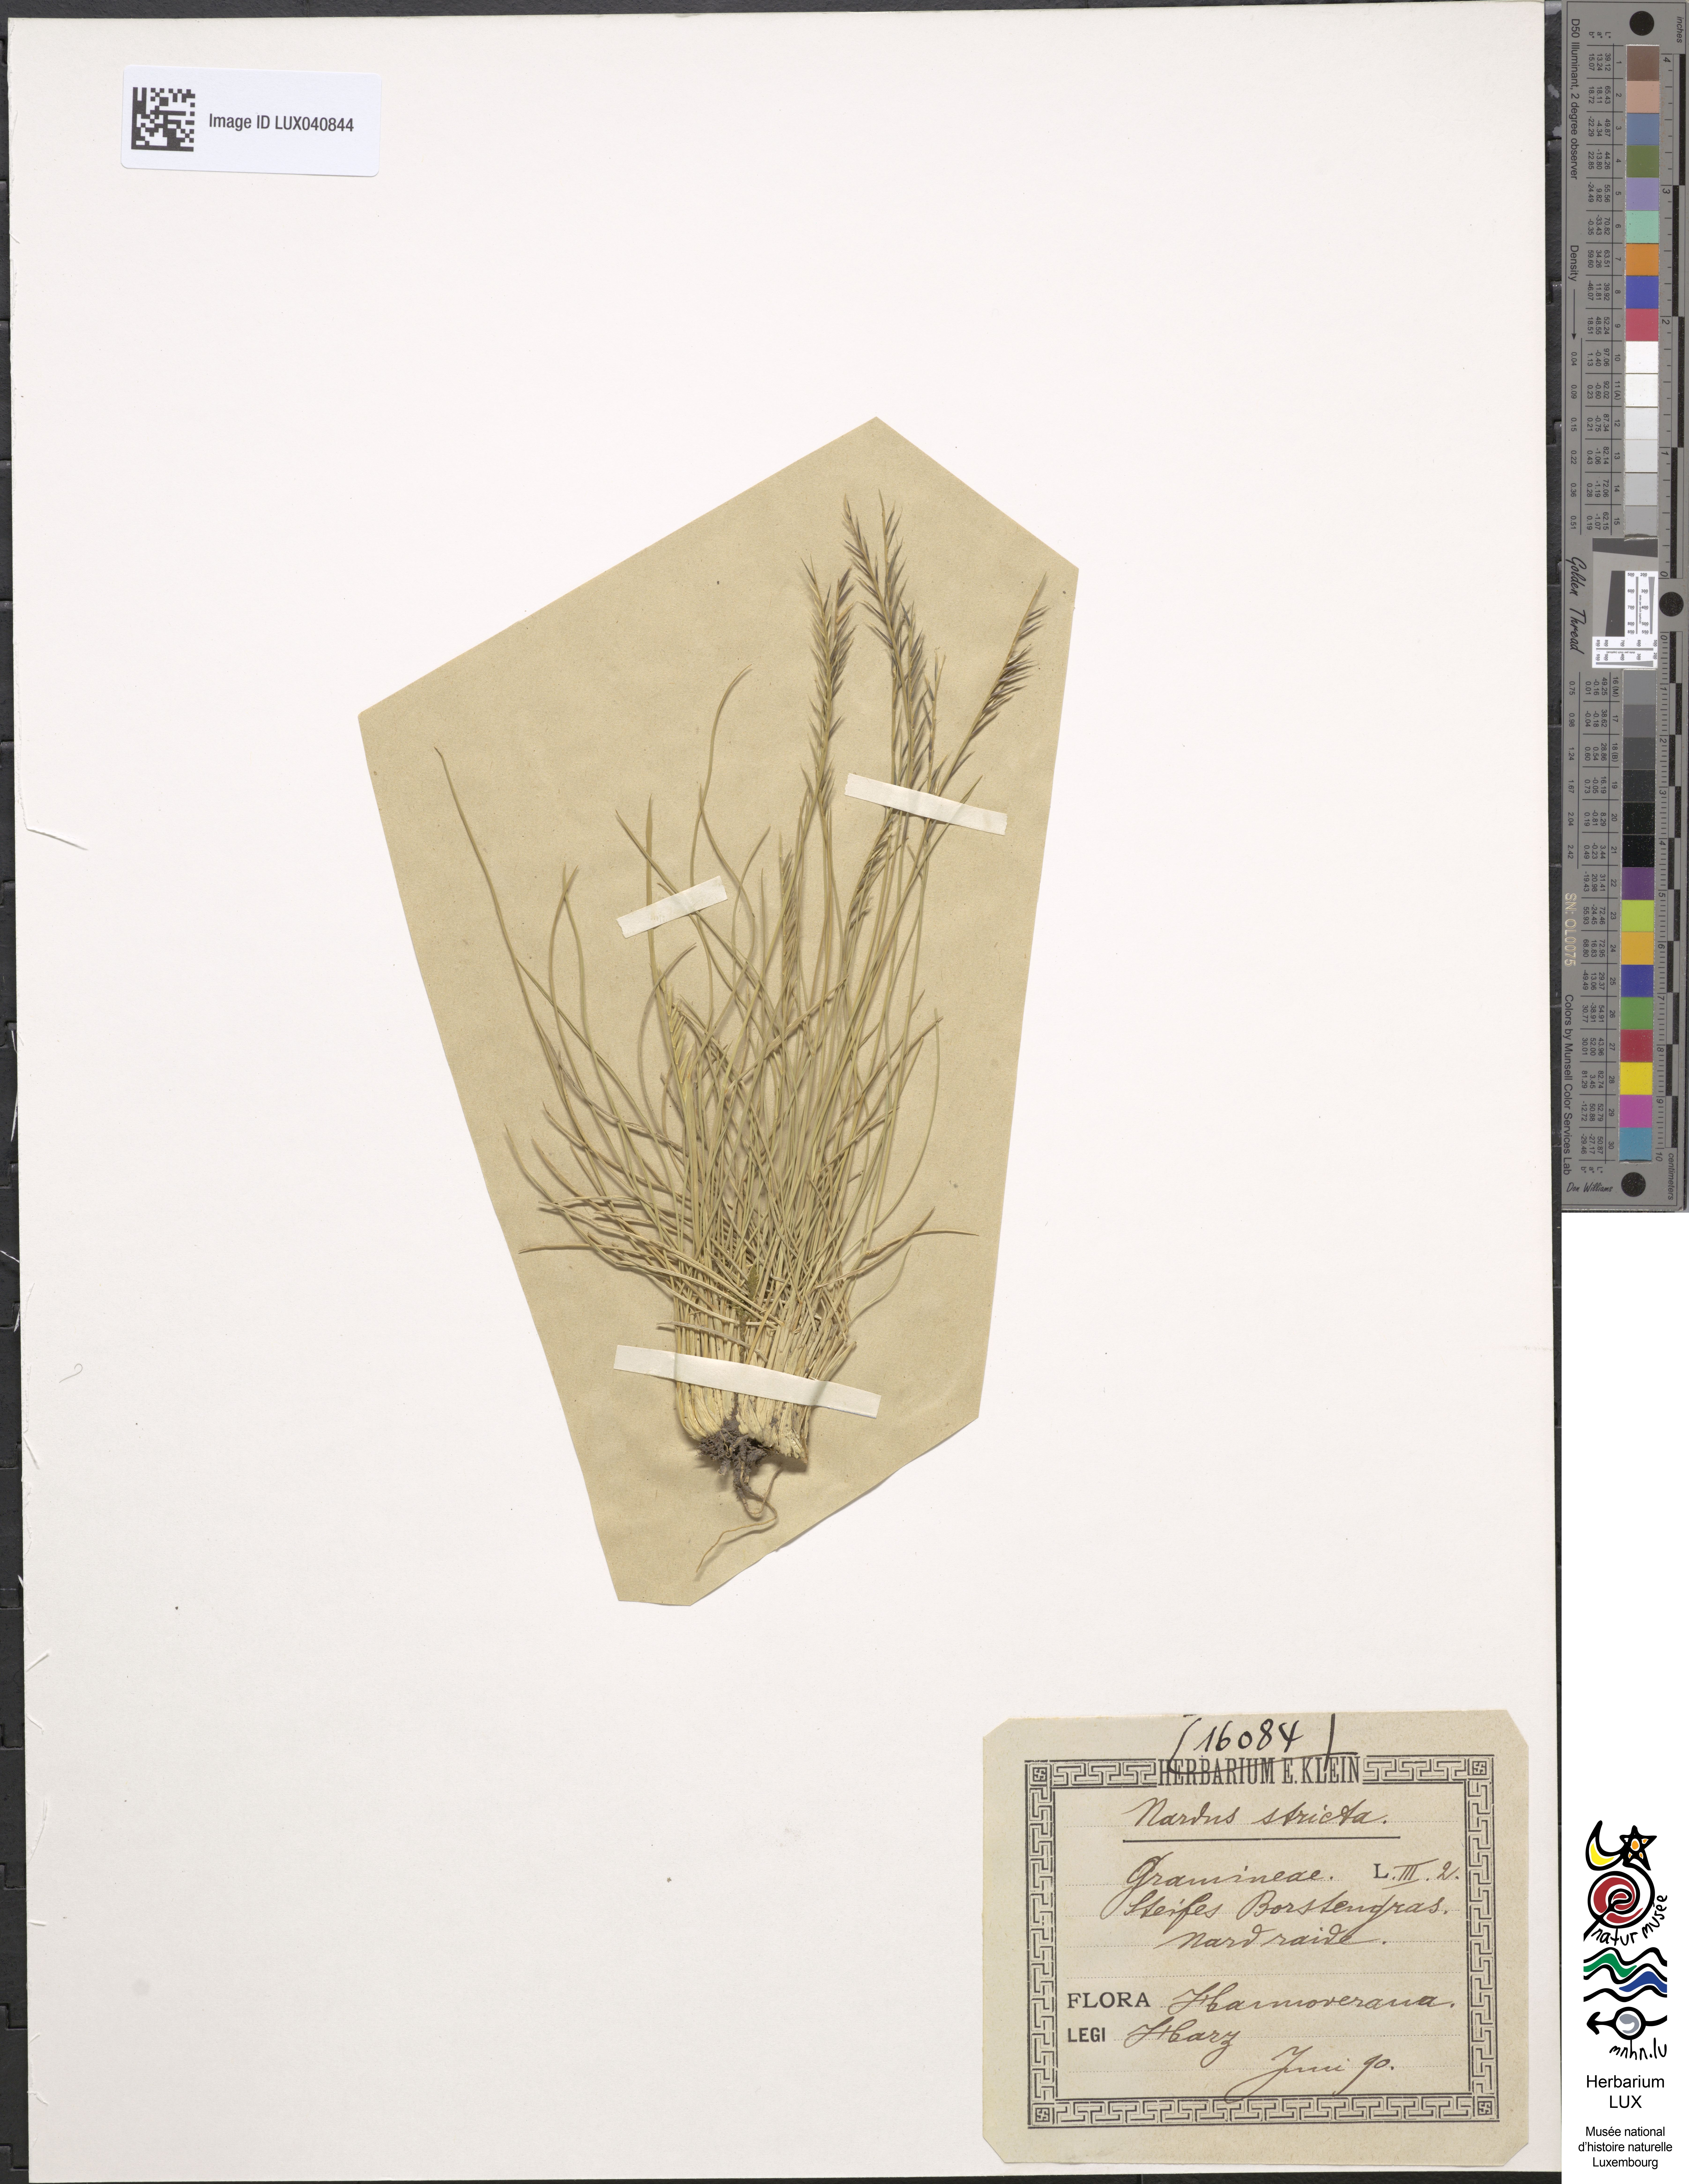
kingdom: Plantae
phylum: Tracheophyta
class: Liliopsida
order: Poales
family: Poaceae
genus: Nardus
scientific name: Nardus stricta
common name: Mat-grass
